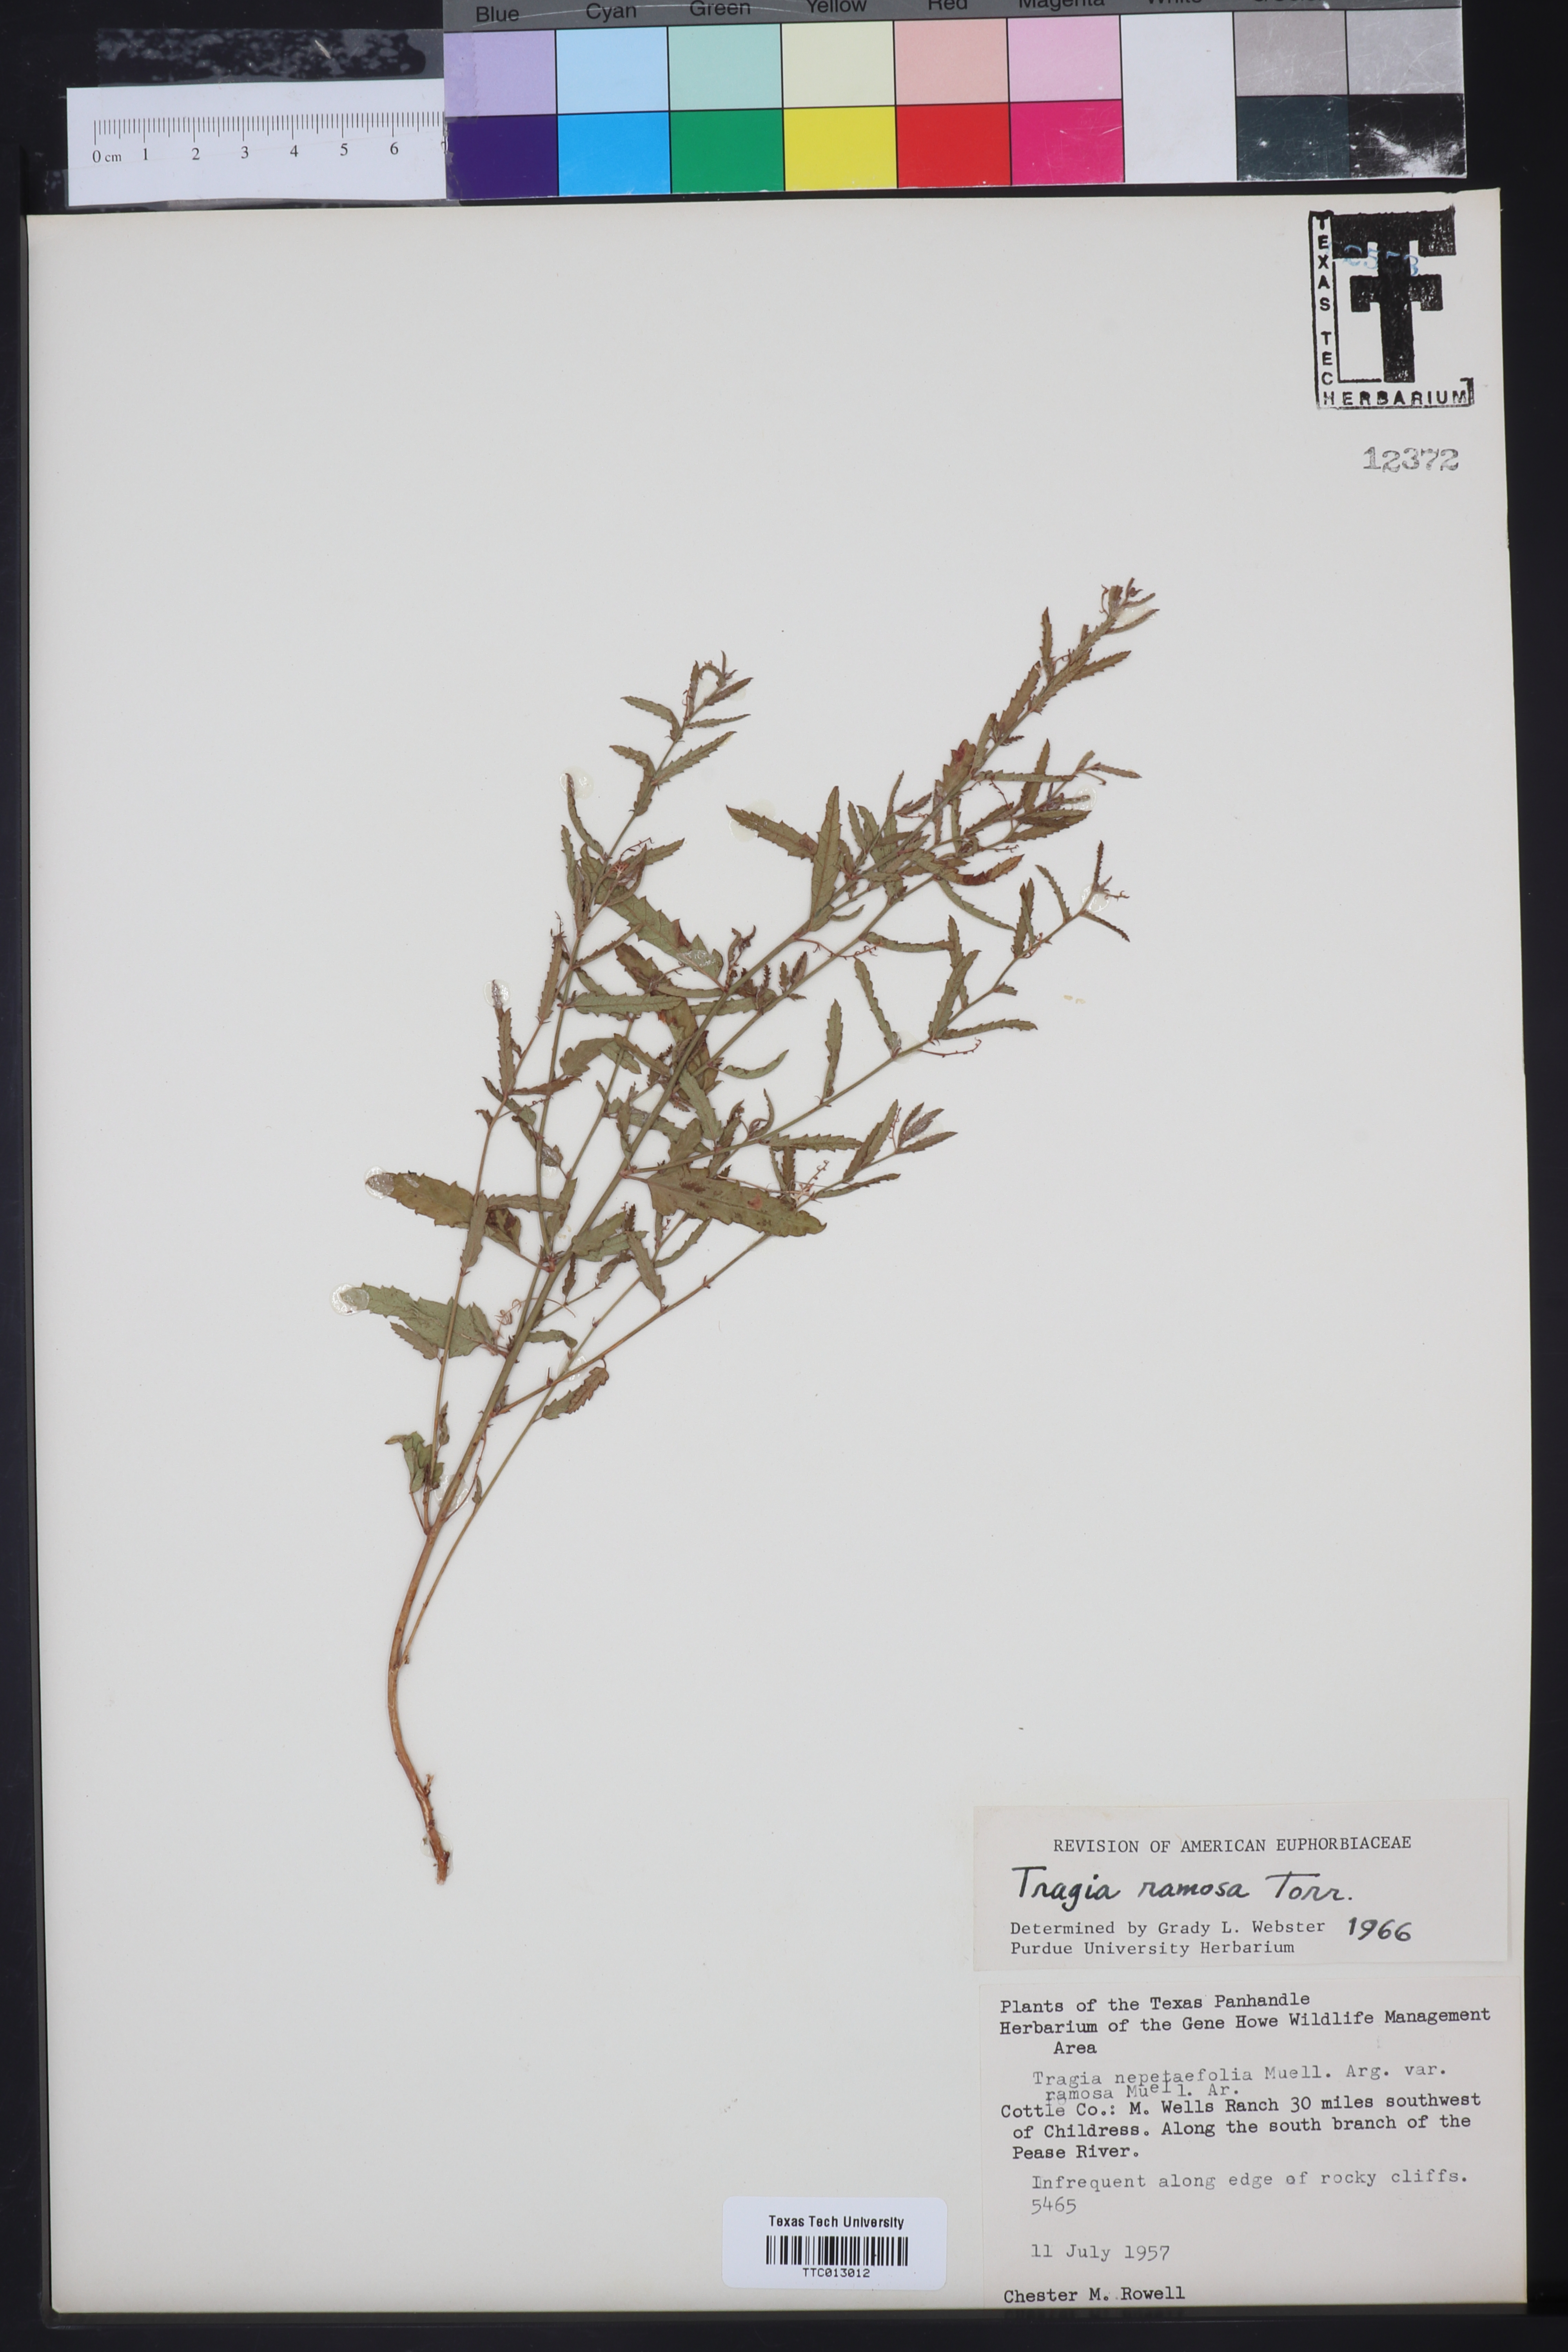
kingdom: Plantae
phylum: Tracheophyta
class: Magnoliopsida
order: Malpighiales
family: Euphorbiaceae
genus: Tragia
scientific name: Tragia ramosa
